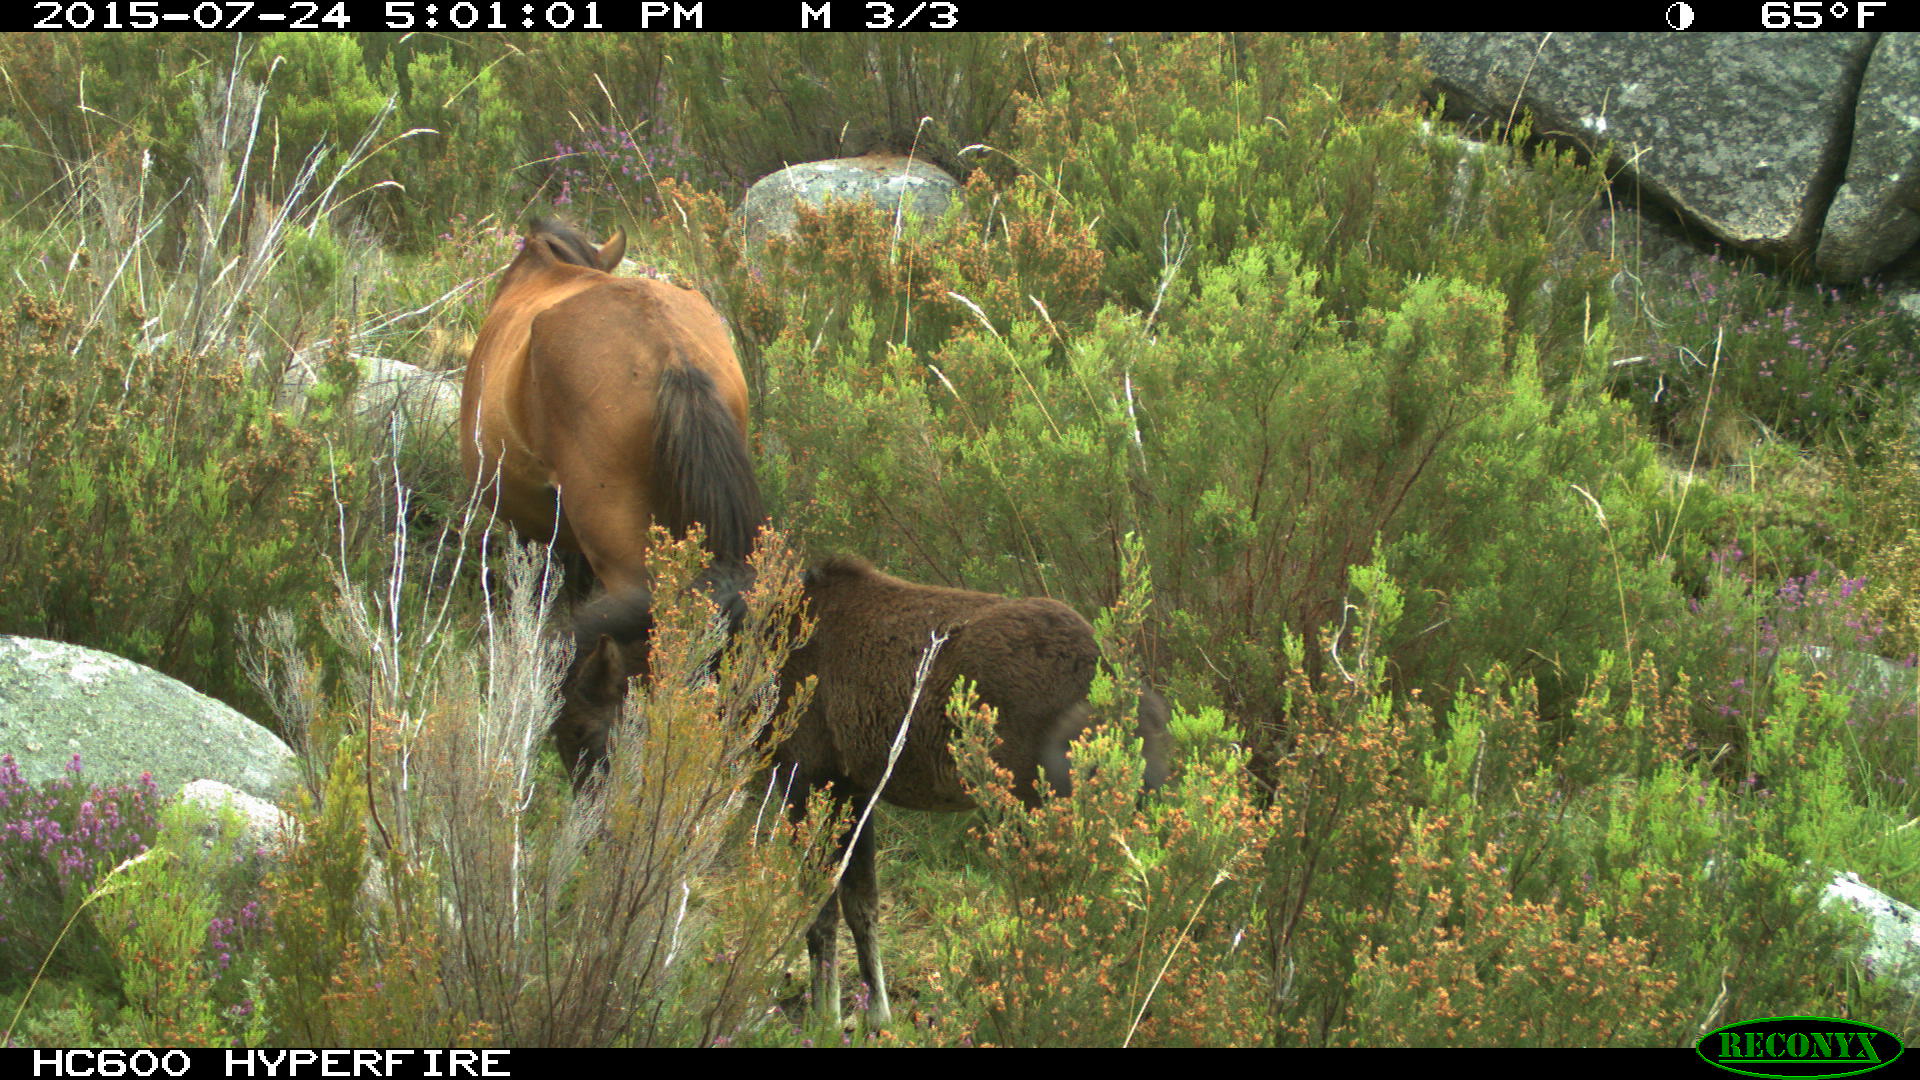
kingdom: Animalia
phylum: Chordata
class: Mammalia
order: Perissodactyla
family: Equidae
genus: Equus
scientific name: Equus caballus
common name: Horse
